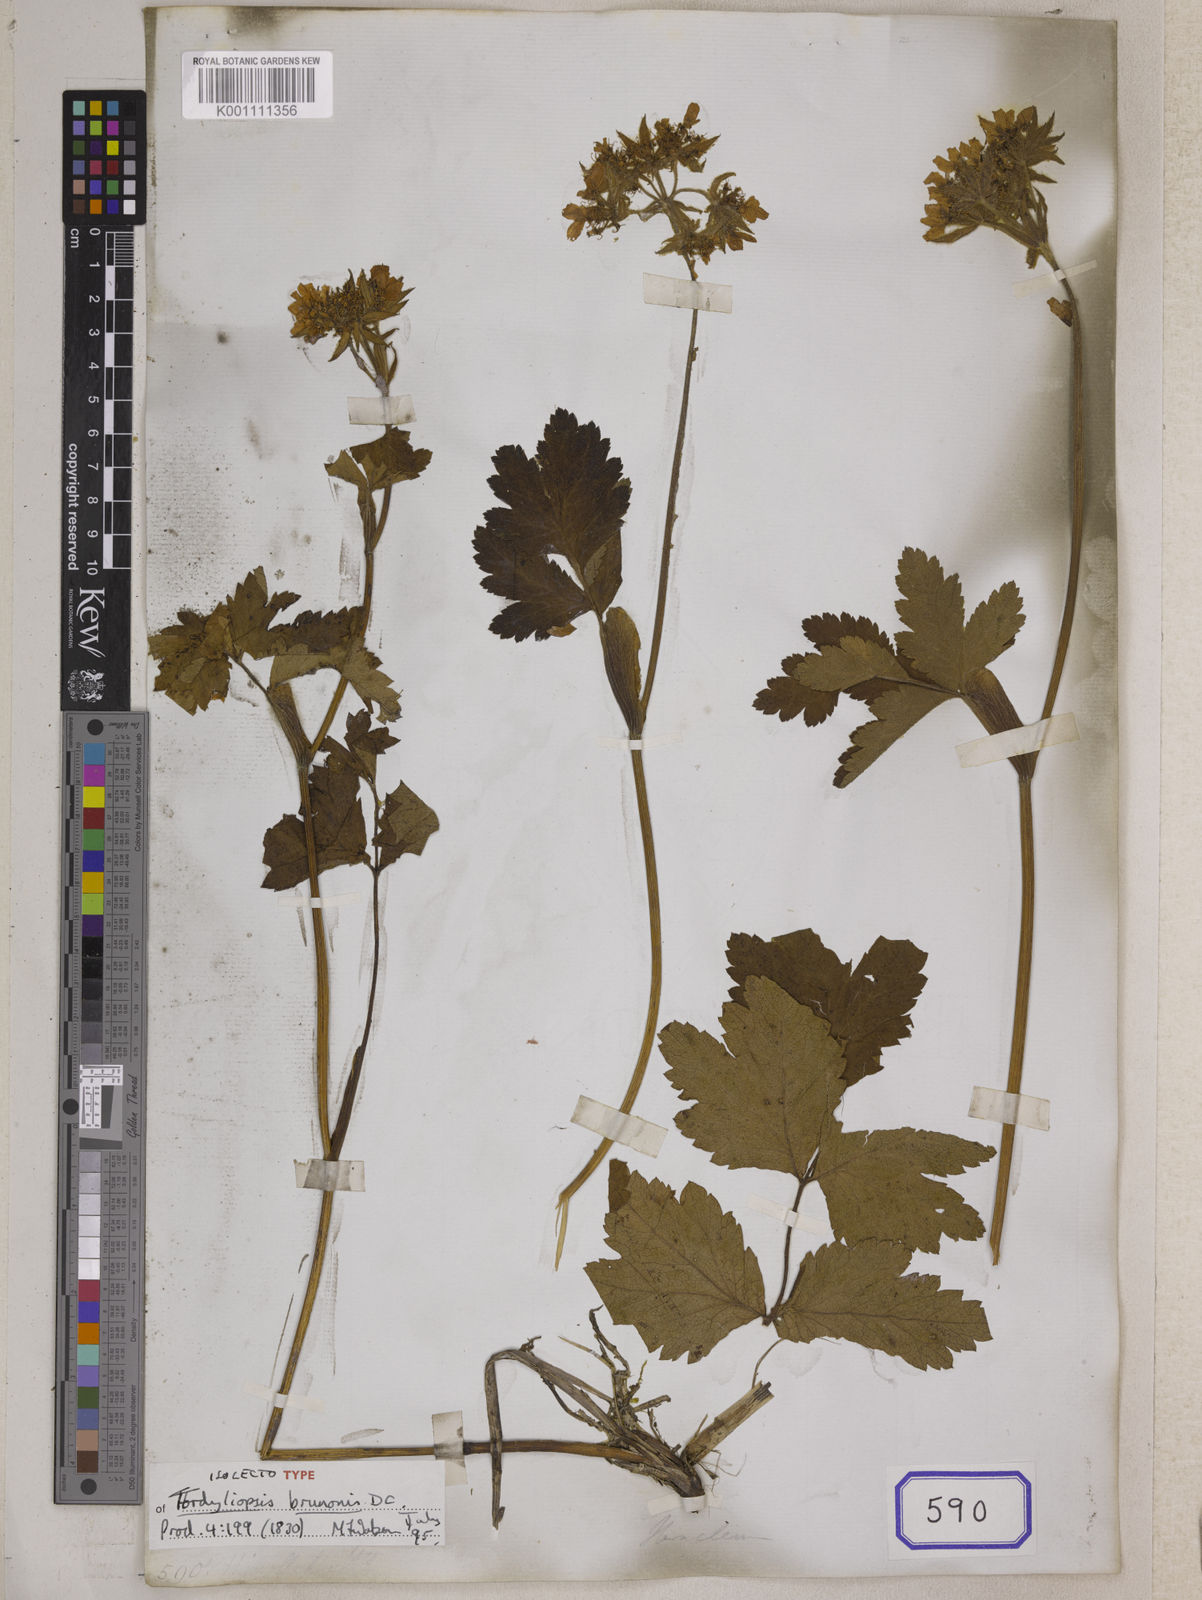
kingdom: Plantae
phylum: Tracheophyta
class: Magnoliopsida
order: Apiales
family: Apiaceae
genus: Tordyliopsis
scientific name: Tordyliopsis brunonis
